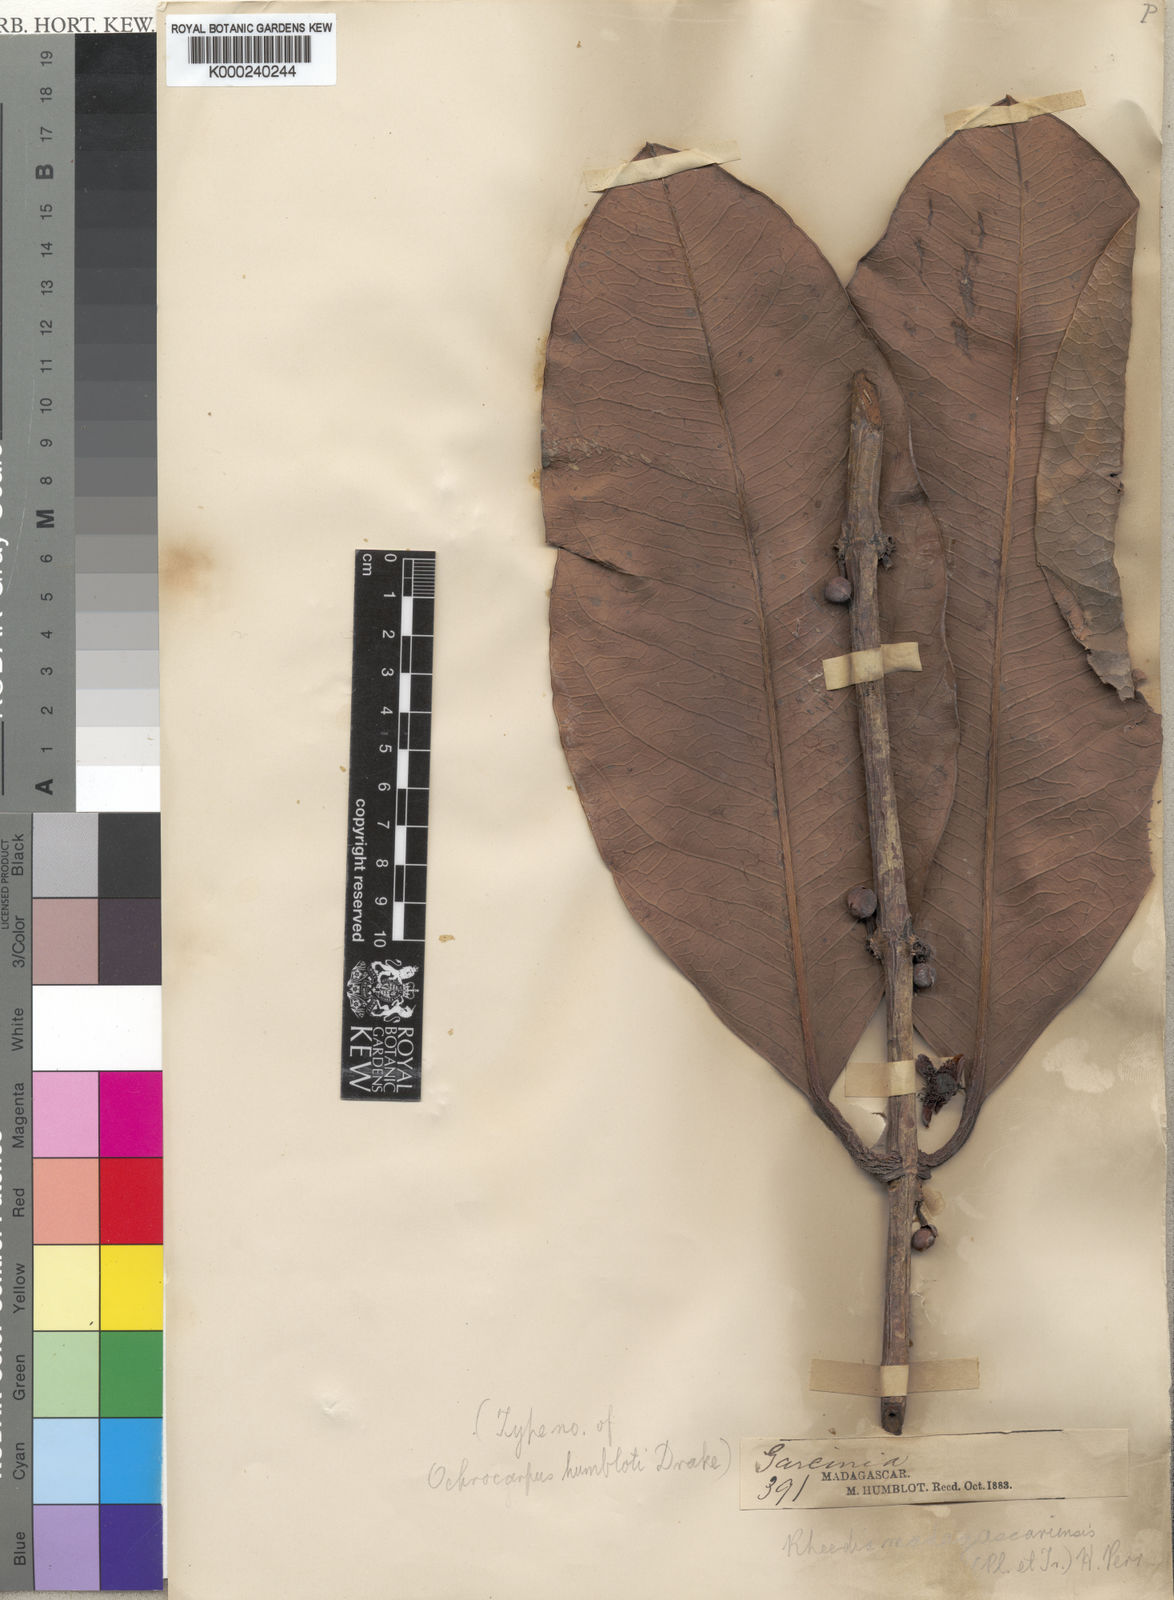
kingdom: Plantae
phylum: Tracheophyta
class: Magnoliopsida
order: Malpighiales
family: Clusiaceae
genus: Garcinia
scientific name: Garcinia
